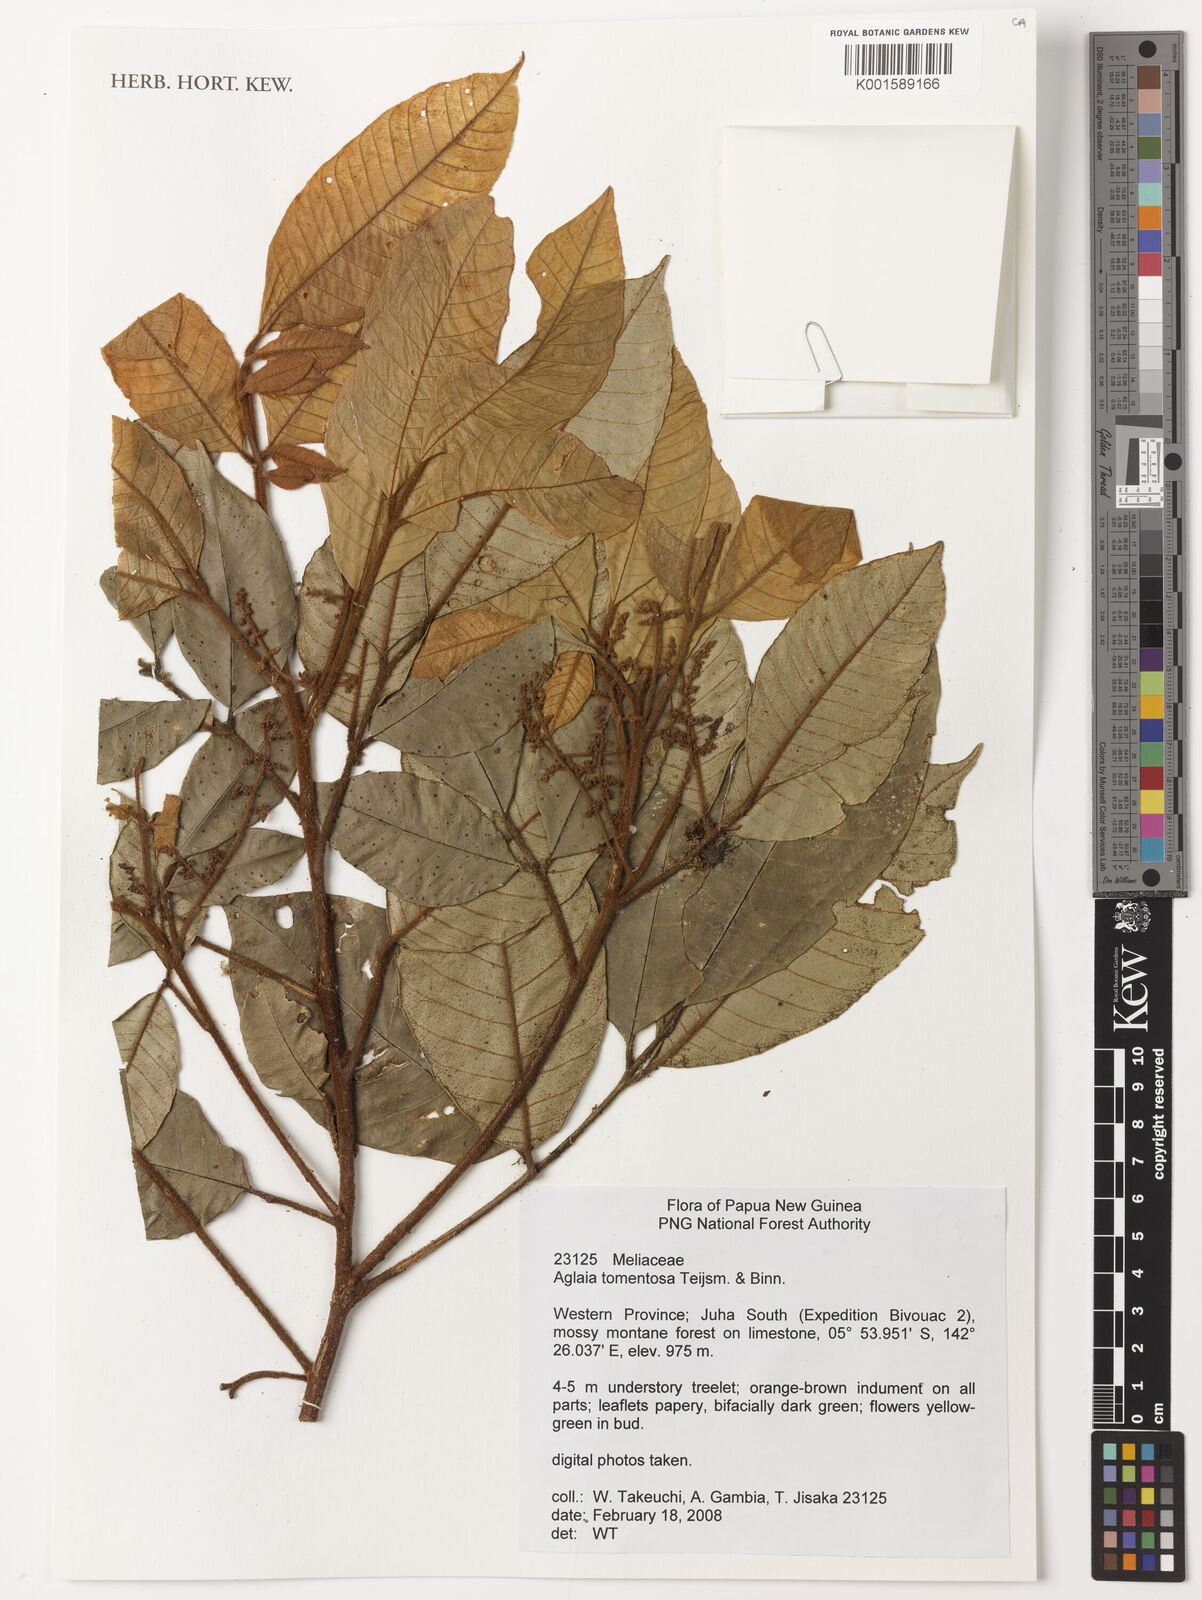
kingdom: Plantae
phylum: Tracheophyta
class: Magnoliopsida
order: Sapindales
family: Meliaceae
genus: Aglaia
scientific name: Aglaia tomentosa
